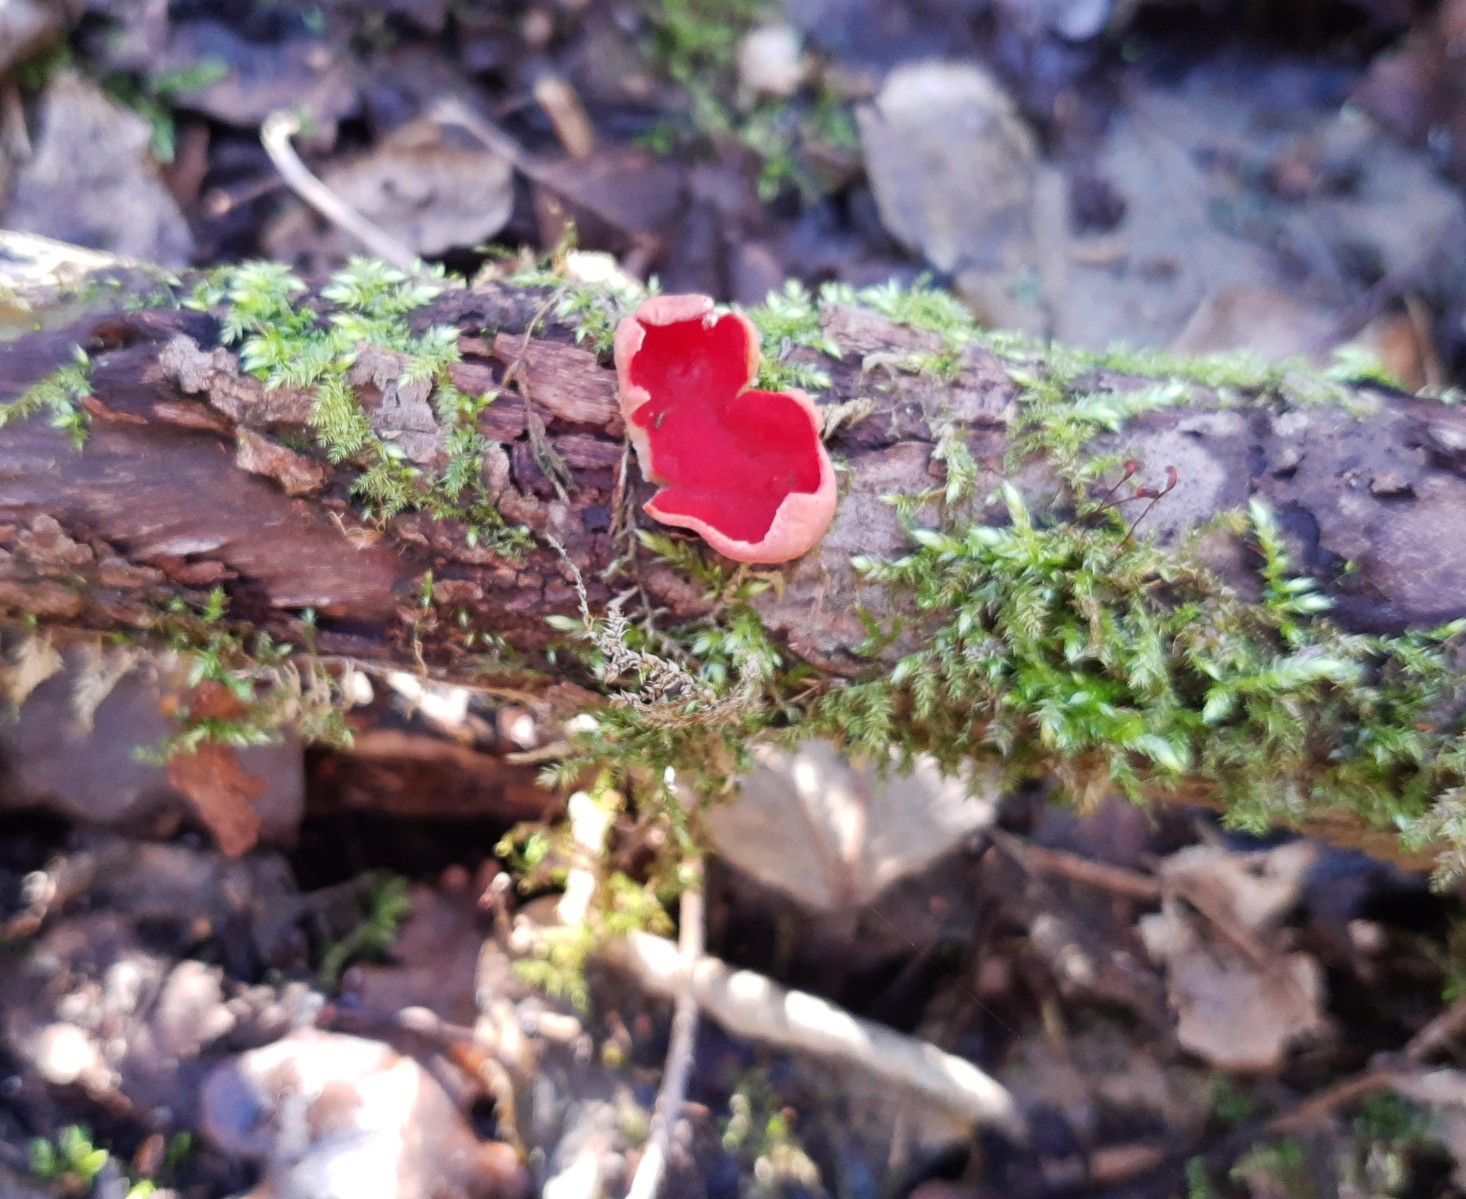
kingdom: Fungi
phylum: Ascomycota
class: Pezizomycetes
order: Pezizales
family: Sarcoscyphaceae
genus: Sarcoscypha
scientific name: Sarcoscypha austriaca
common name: krølhåret pragtbæger
